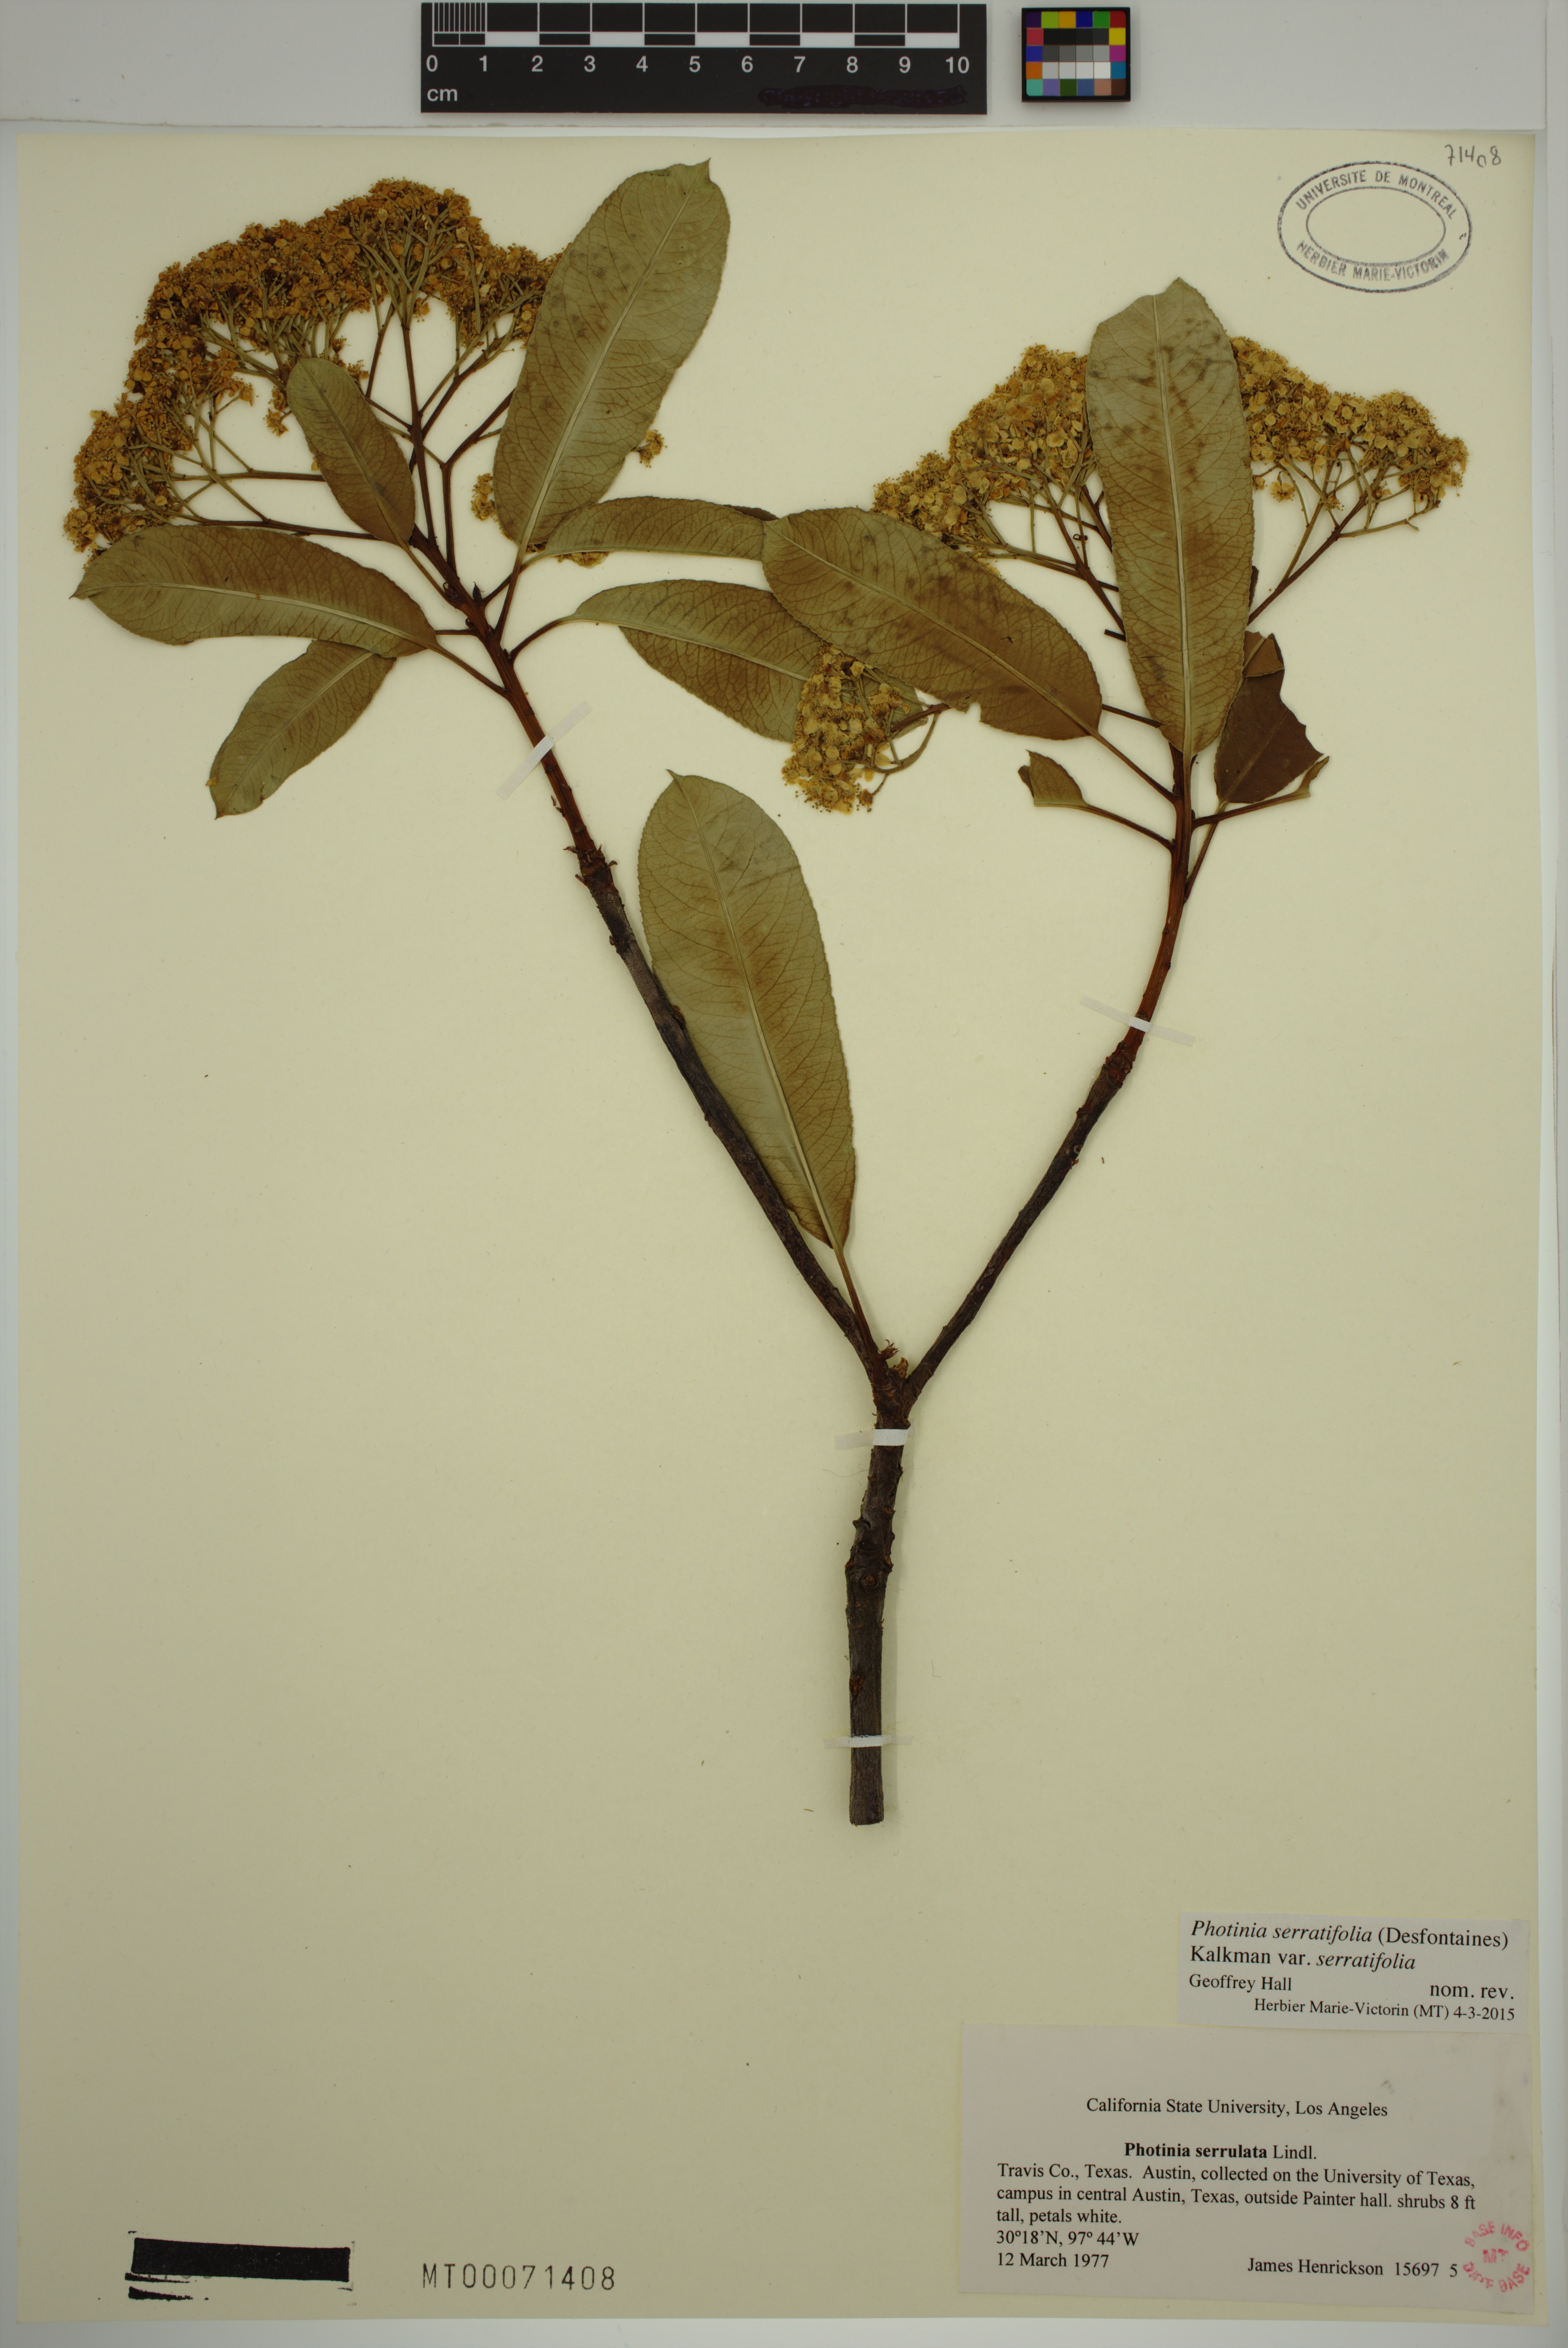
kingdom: Plantae
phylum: Tracheophyta
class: Magnoliopsida
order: Rosales
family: Rosaceae
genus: Photinia
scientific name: Photinia serratifolia
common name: Taiwanese photinia
